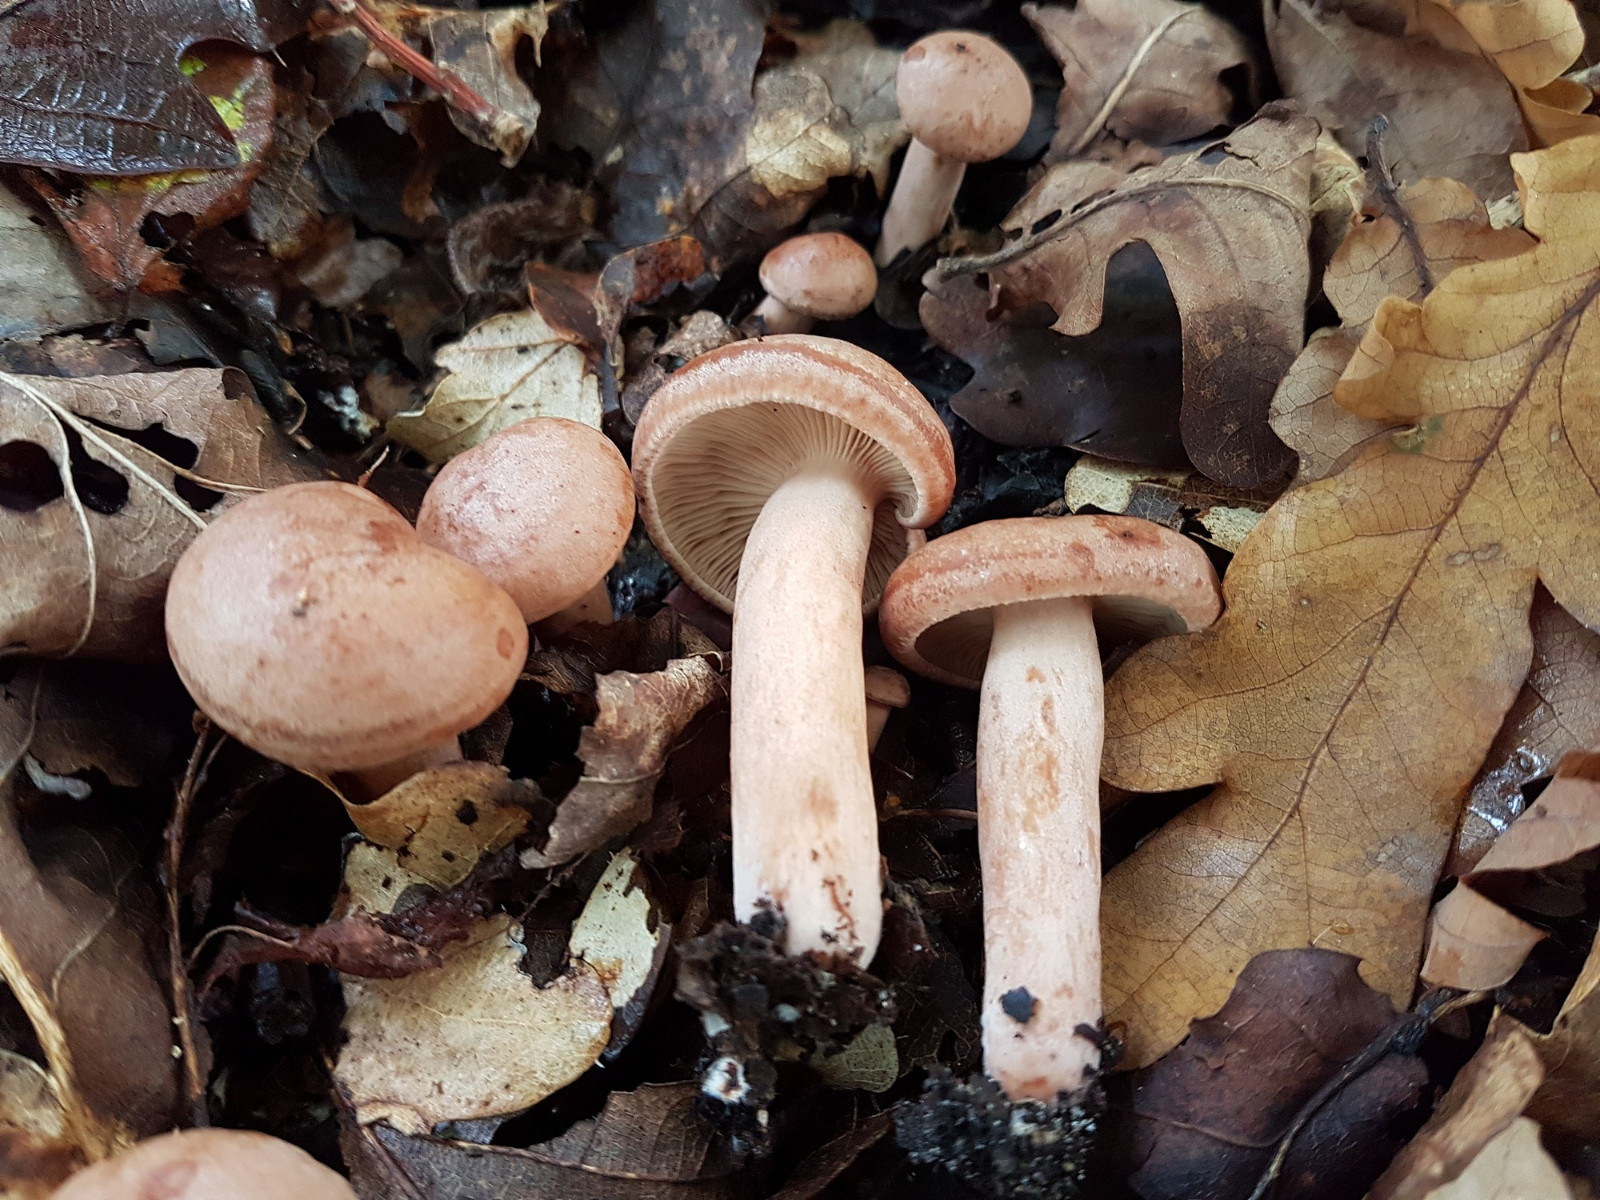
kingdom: Fungi
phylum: Basidiomycota
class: Agaricomycetes
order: Russulales
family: Russulaceae
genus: Lactarius
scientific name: Lactarius quietus
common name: ege-mælkehat
